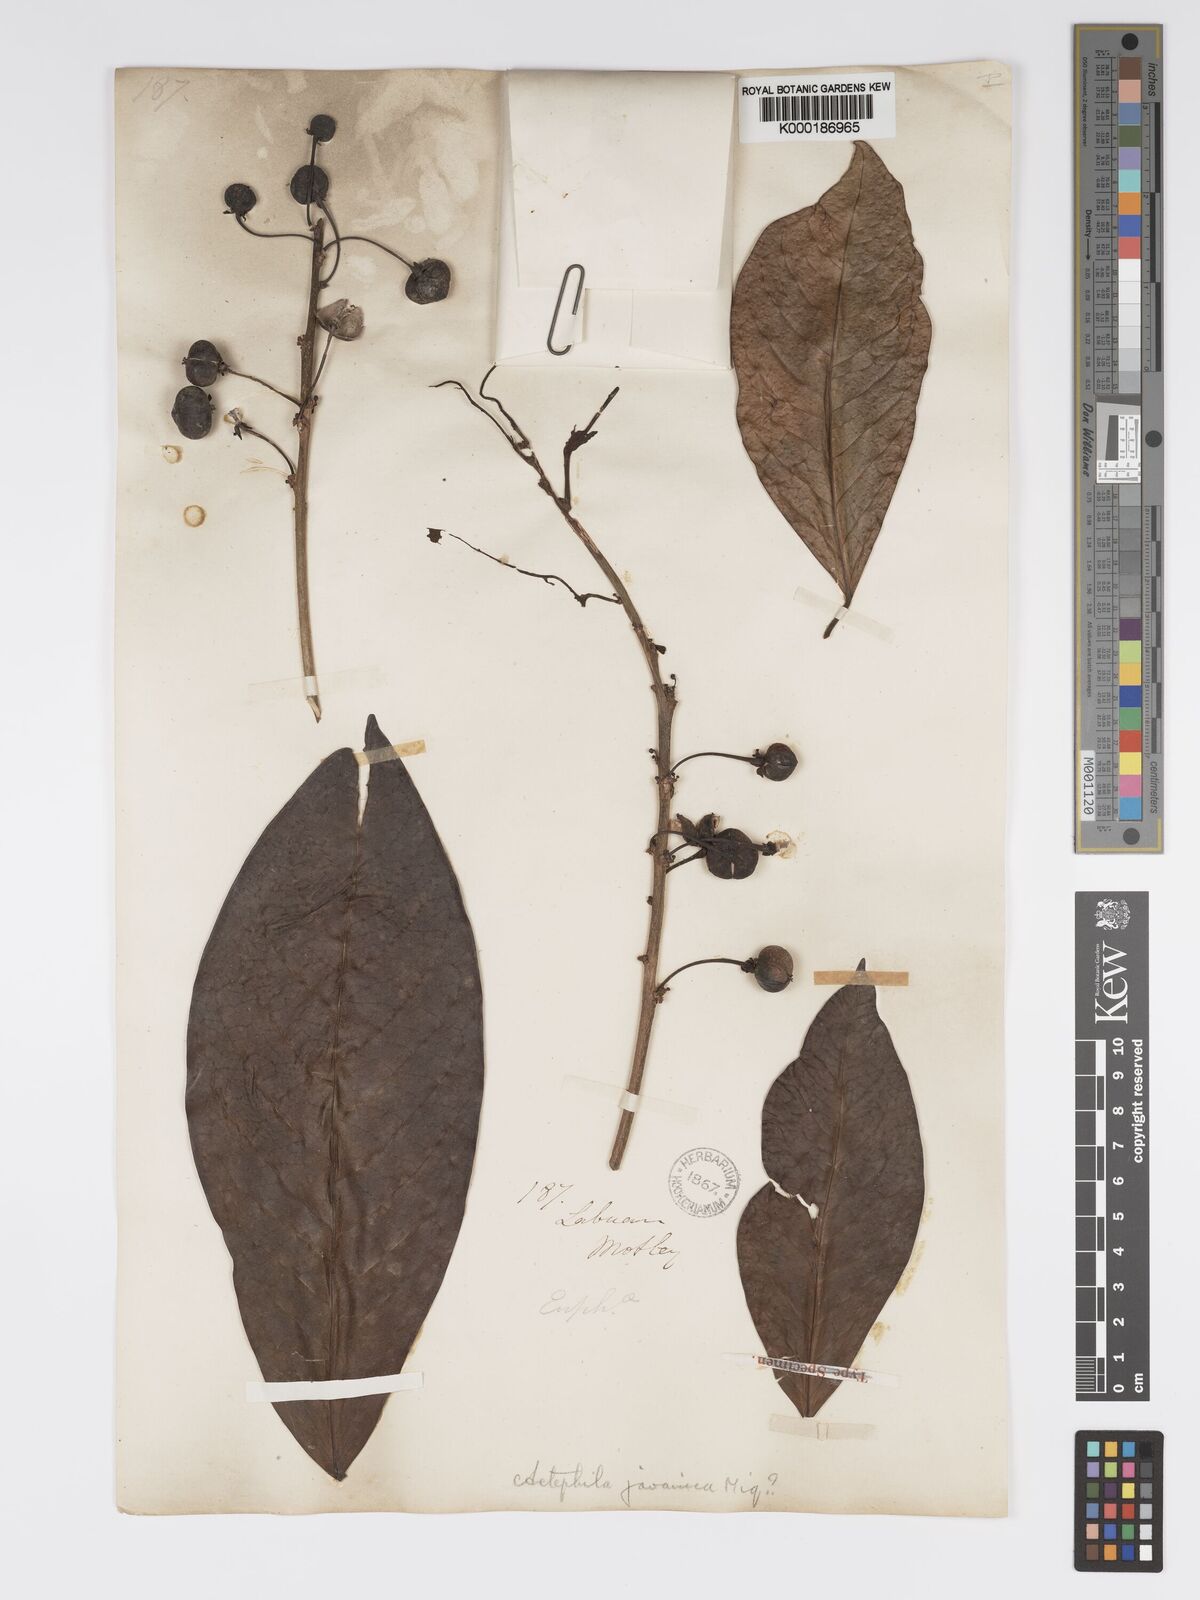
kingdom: Plantae
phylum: Tracheophyta
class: Magnoliopsida
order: Malpighiales
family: Phyllanthaceae
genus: Actephila
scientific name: Actephila
